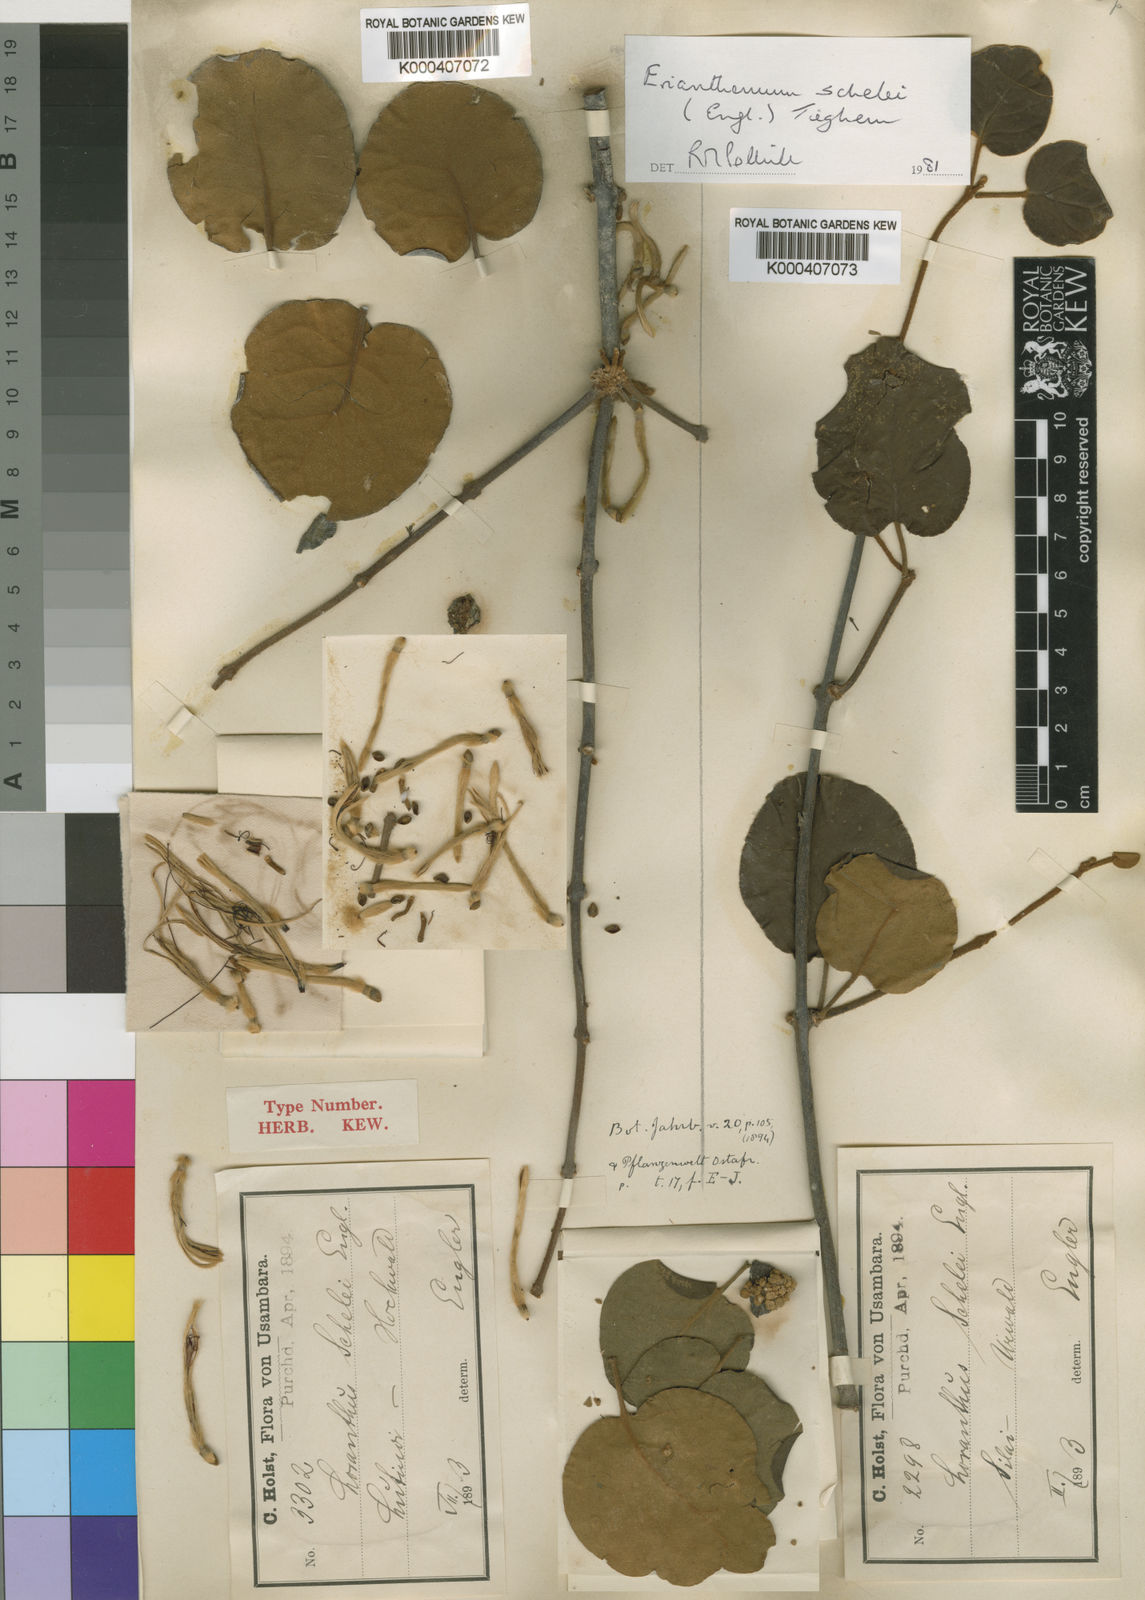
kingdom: Plantae
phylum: Tracheophyta
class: Magnoliopsida
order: Santalales
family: Loranthaceae
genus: Erianthemum
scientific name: Erianthemum schelei
